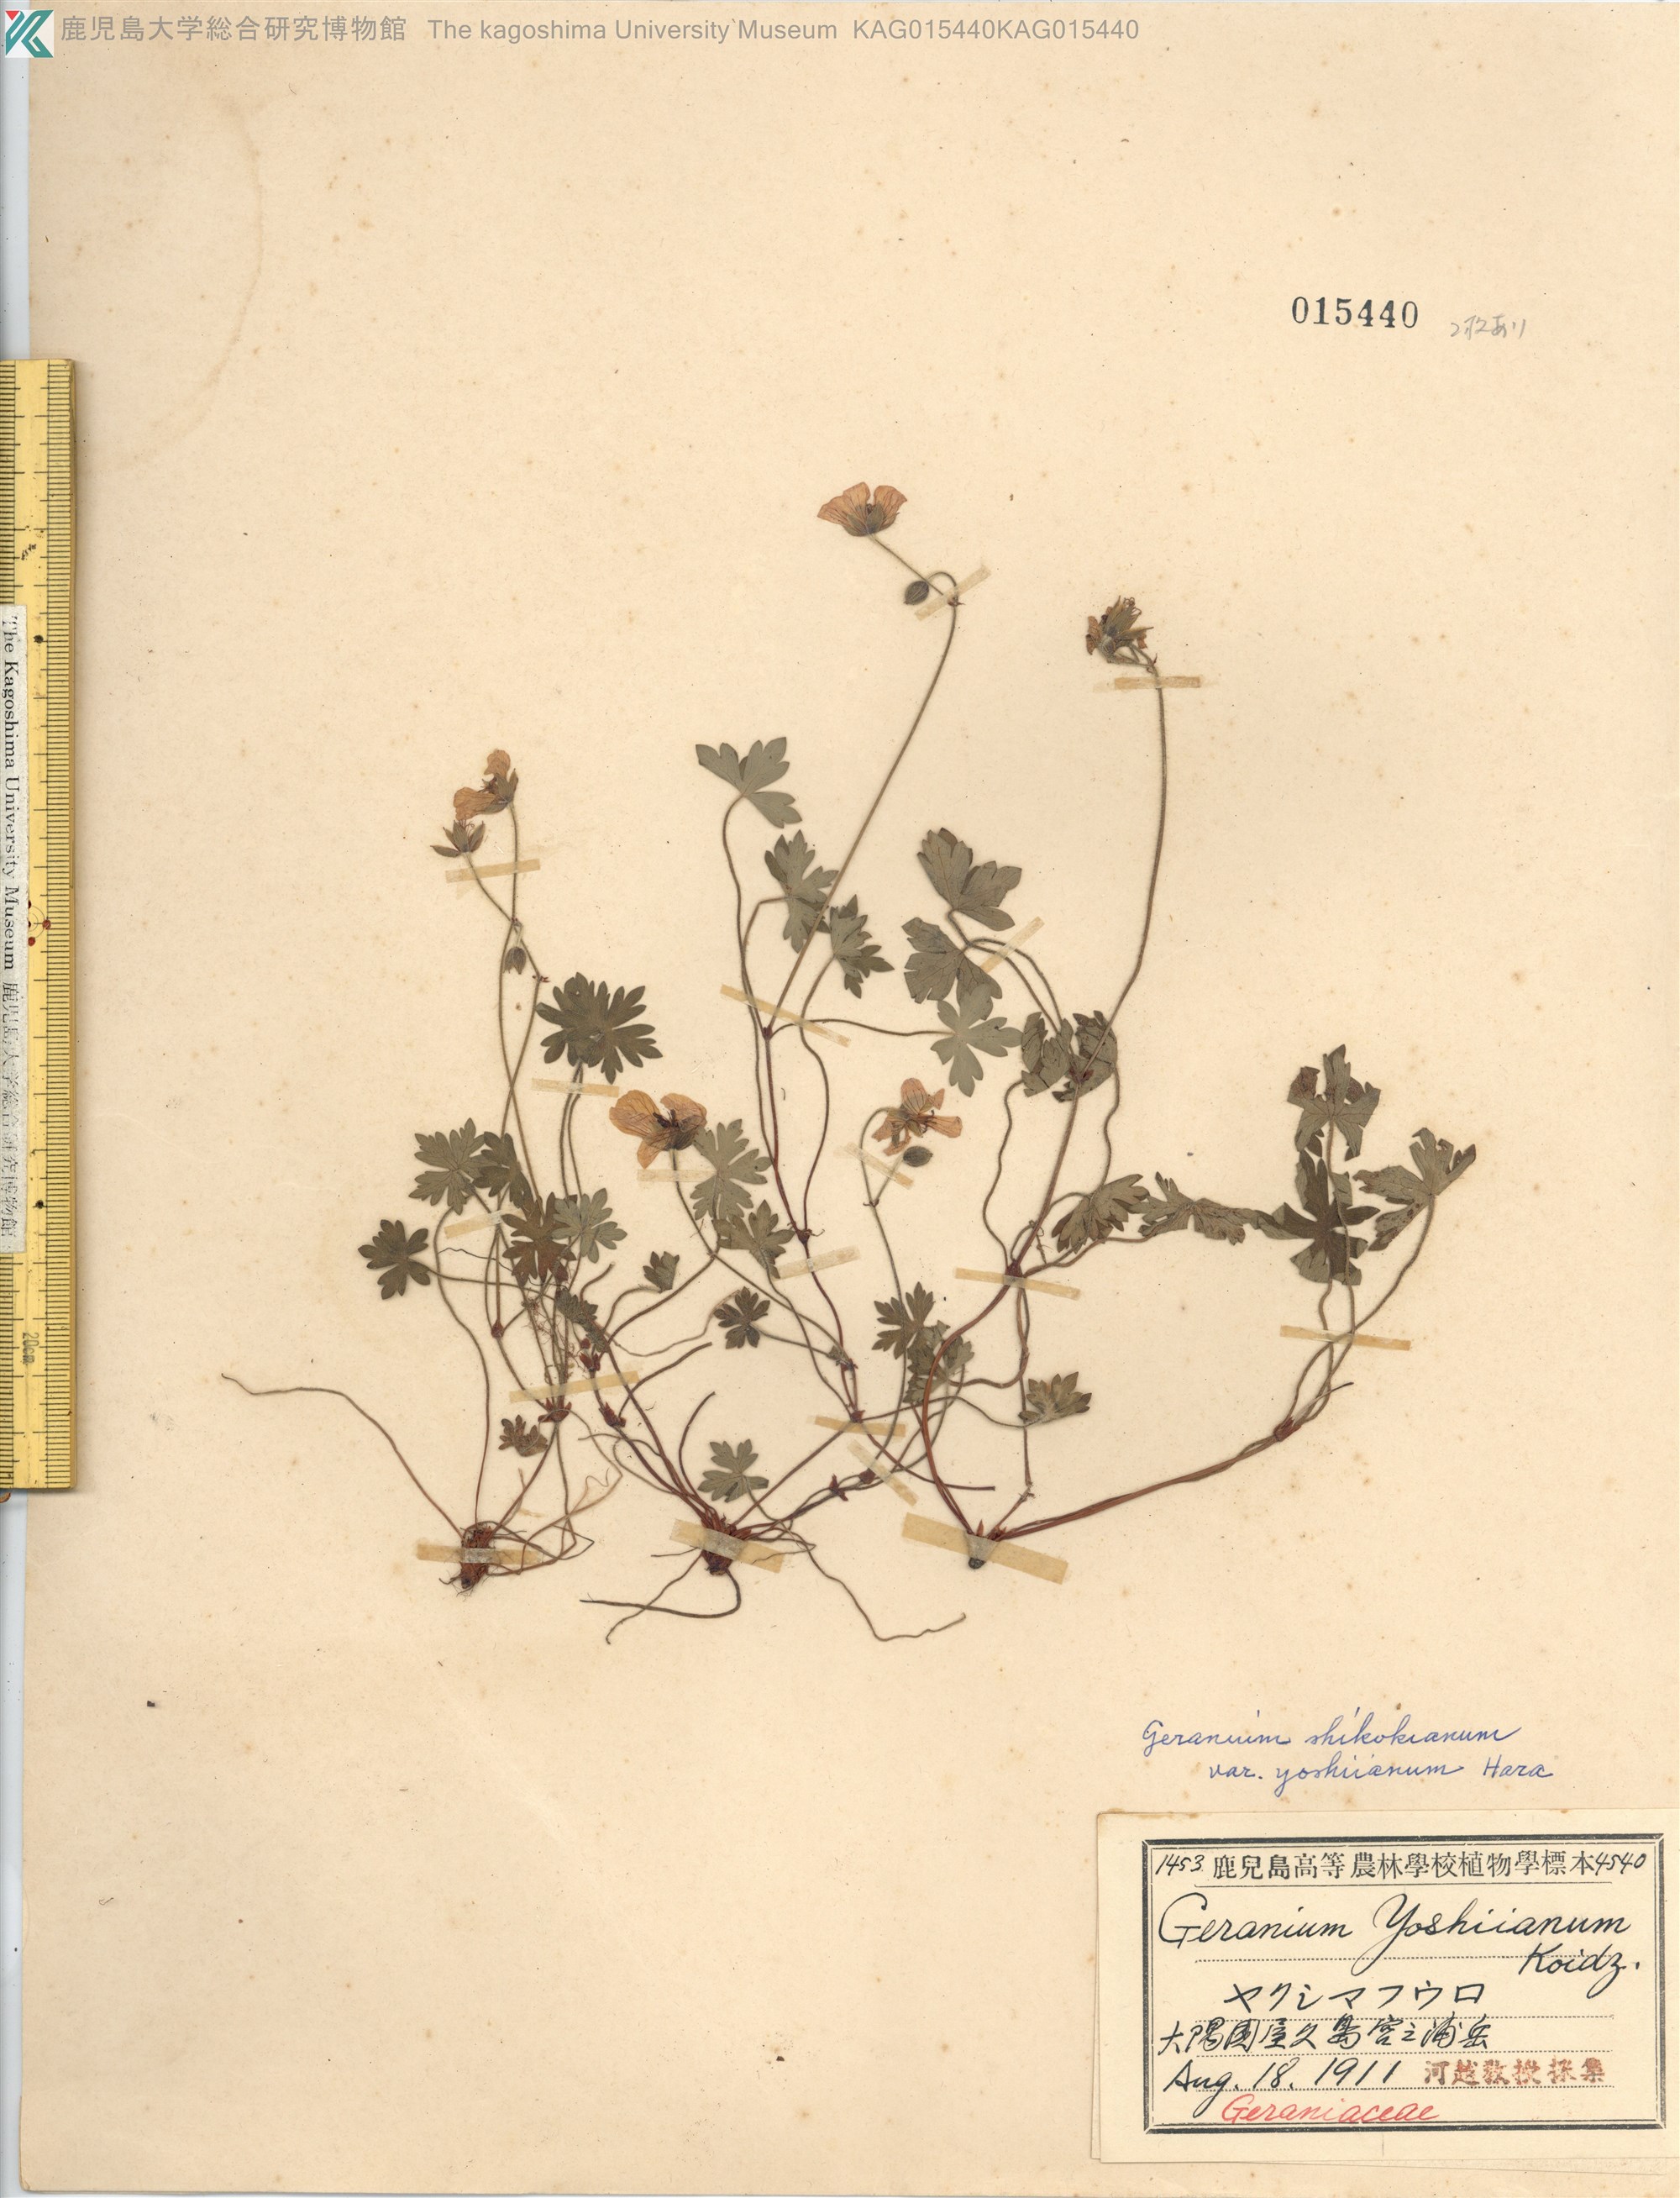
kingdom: Plantae
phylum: Tracheophyta
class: Magnoliopsida
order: Geraniales
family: Geraniaceae
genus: Geranium
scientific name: Geranium shikokianum
